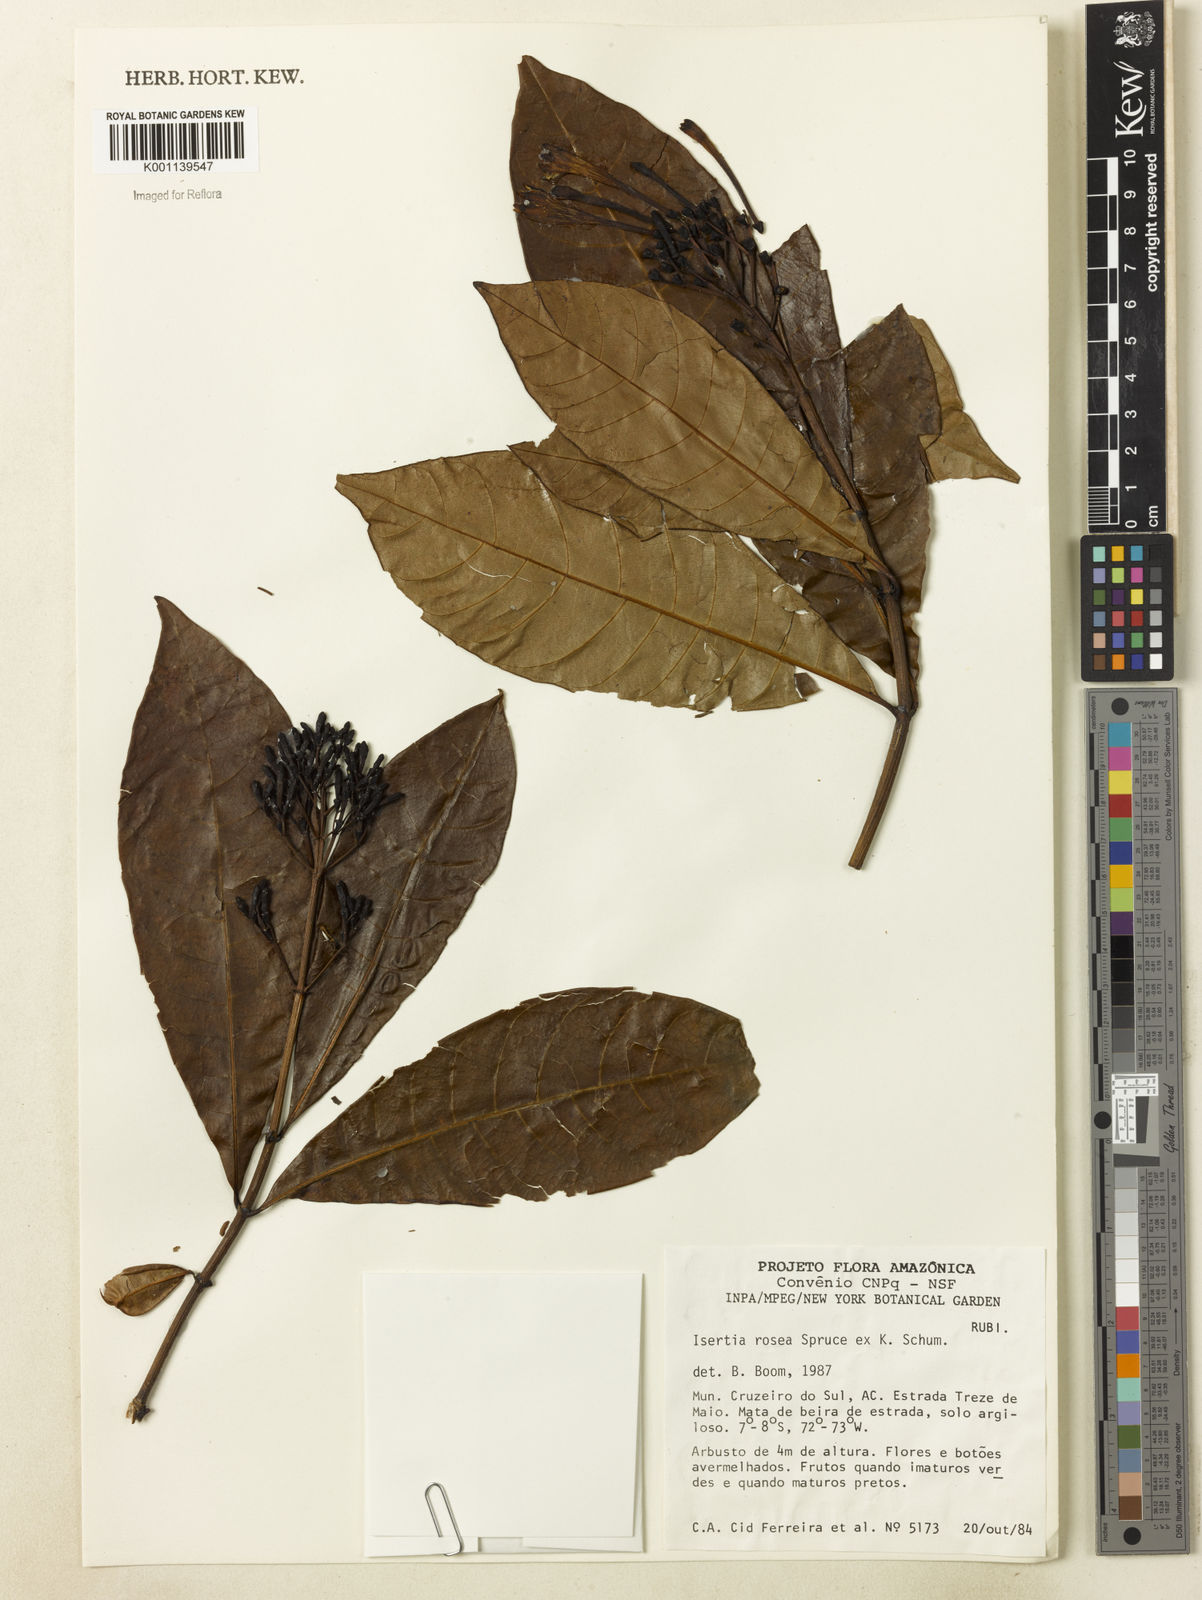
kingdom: Plantae
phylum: Tracheophyta
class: Magnoliopsida
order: Gentianales
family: Rubiaceae
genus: Isertia
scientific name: Isertia rosea
